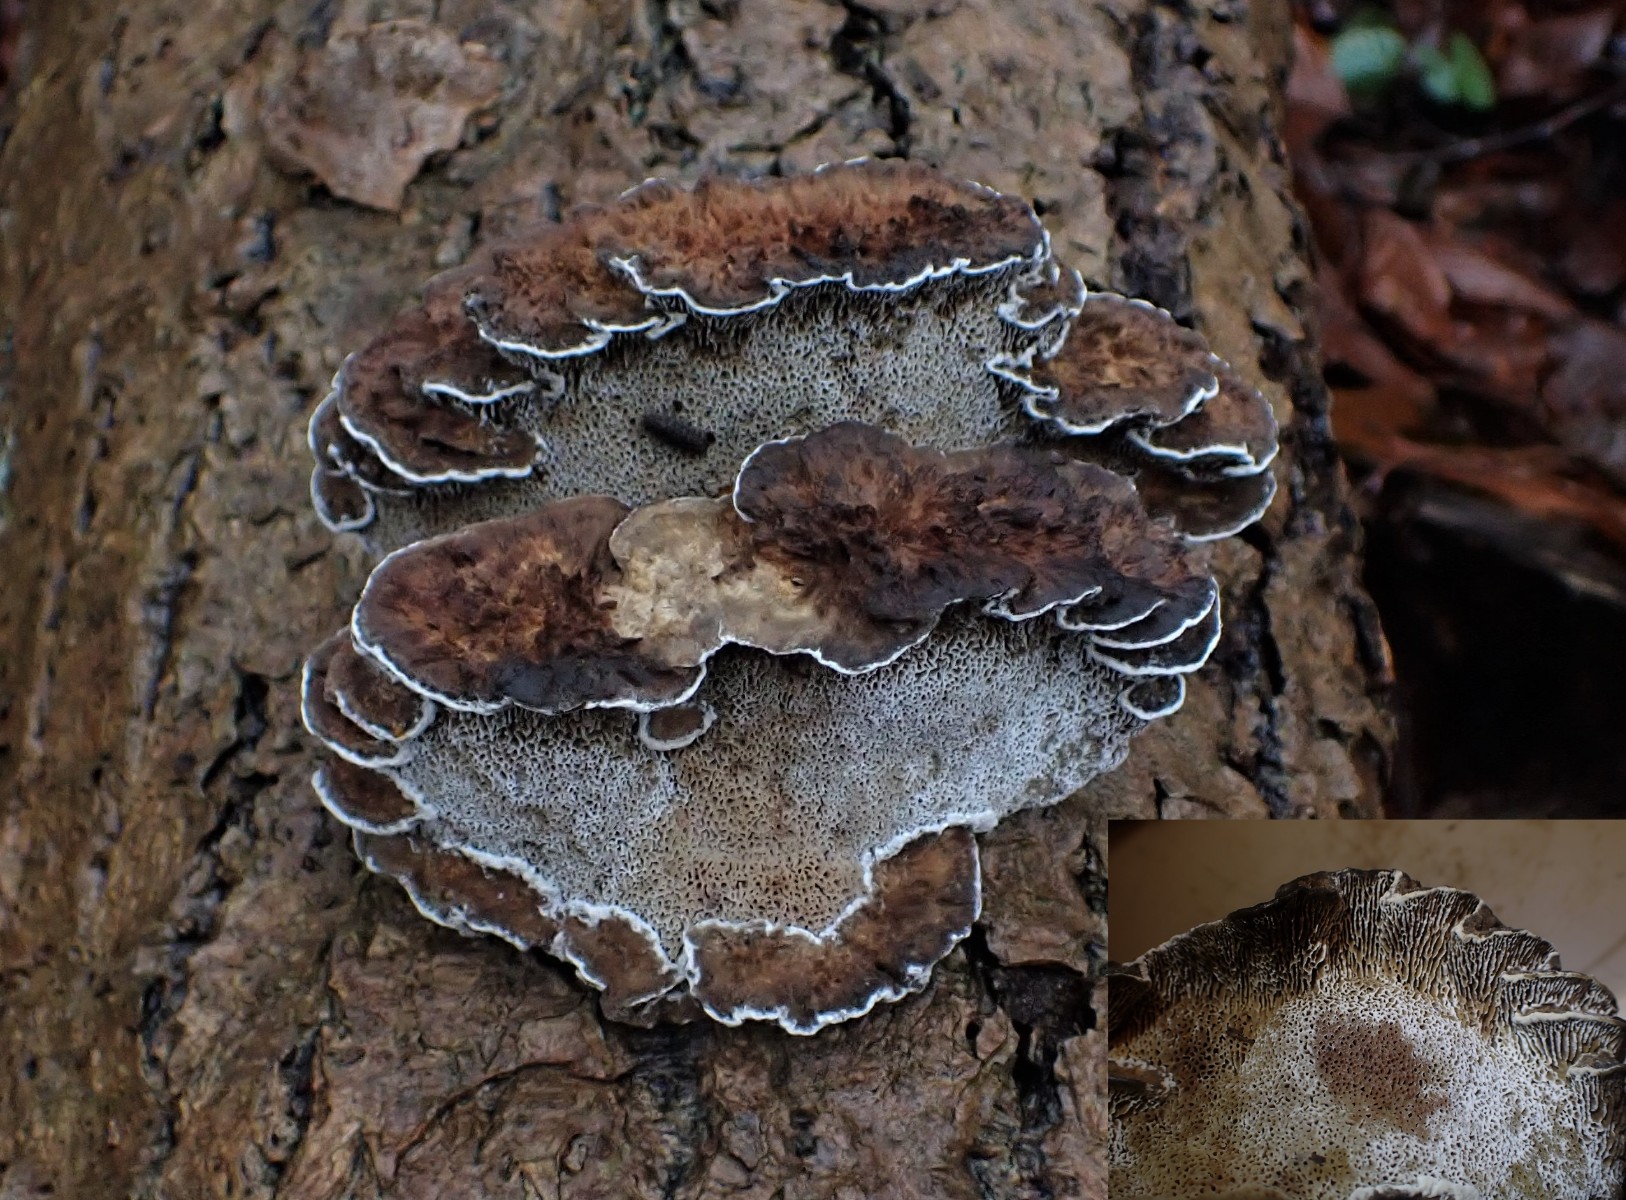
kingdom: Fungi
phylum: Basidiomycota
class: Agaricomycetes
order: Polyporales
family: Polyporaceae
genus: Daedaleopsis
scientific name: Daedaleopsis confragosa
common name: rødmende læderporesvamp
